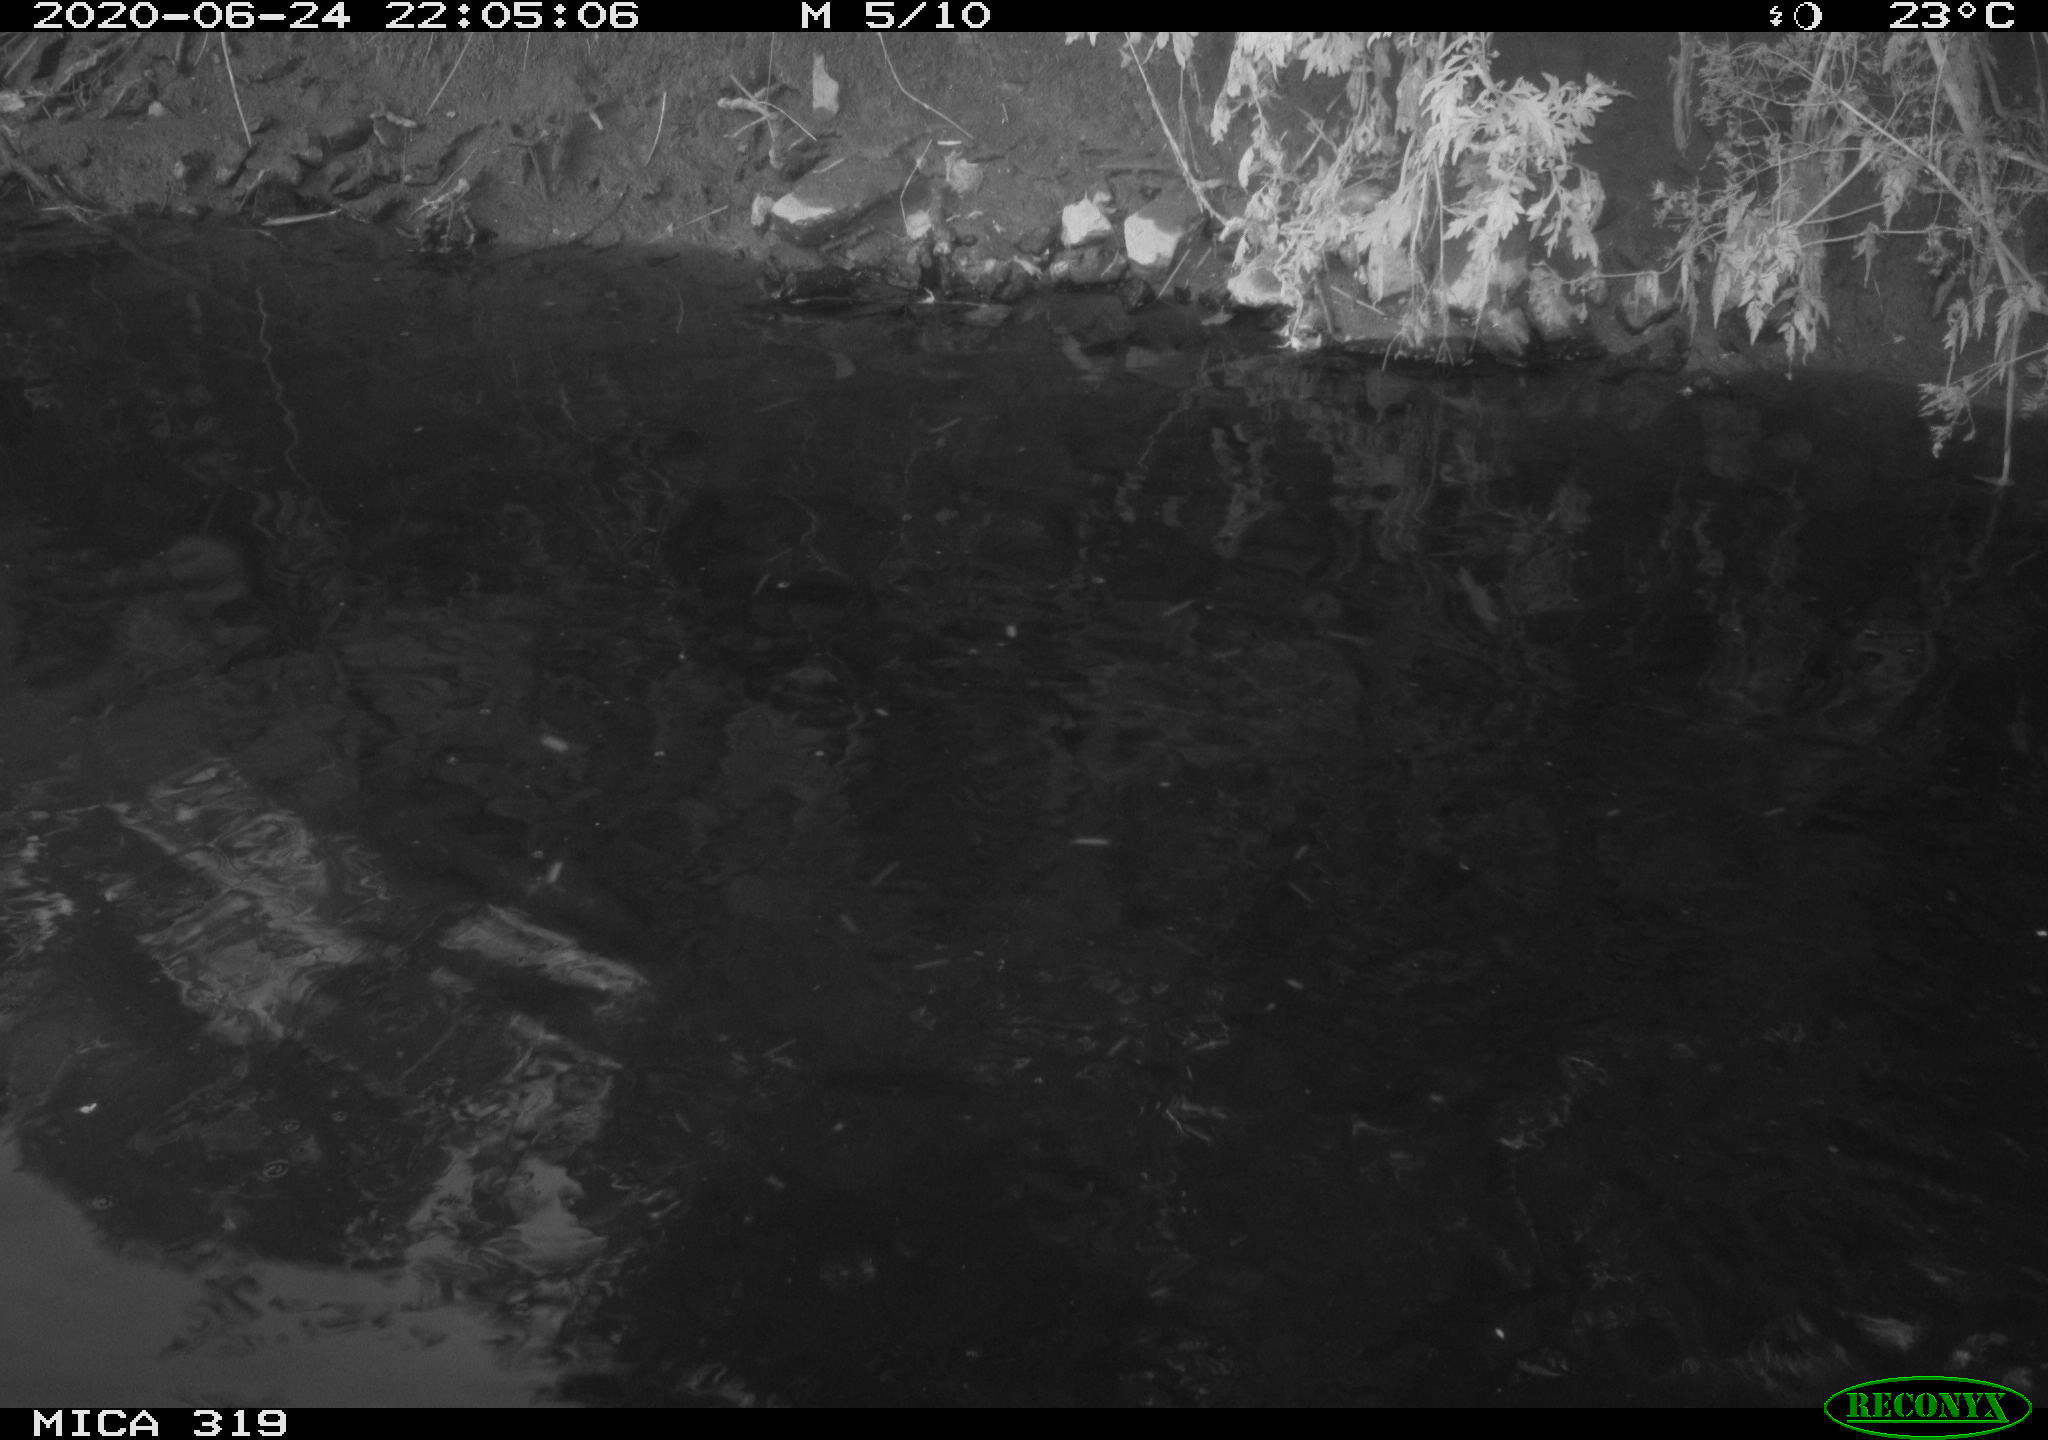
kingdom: Animalia
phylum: Chordata
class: Aves
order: Anseriformes
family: Anatidae
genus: Anas
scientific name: Anas platyrhynchos
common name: Mallard
